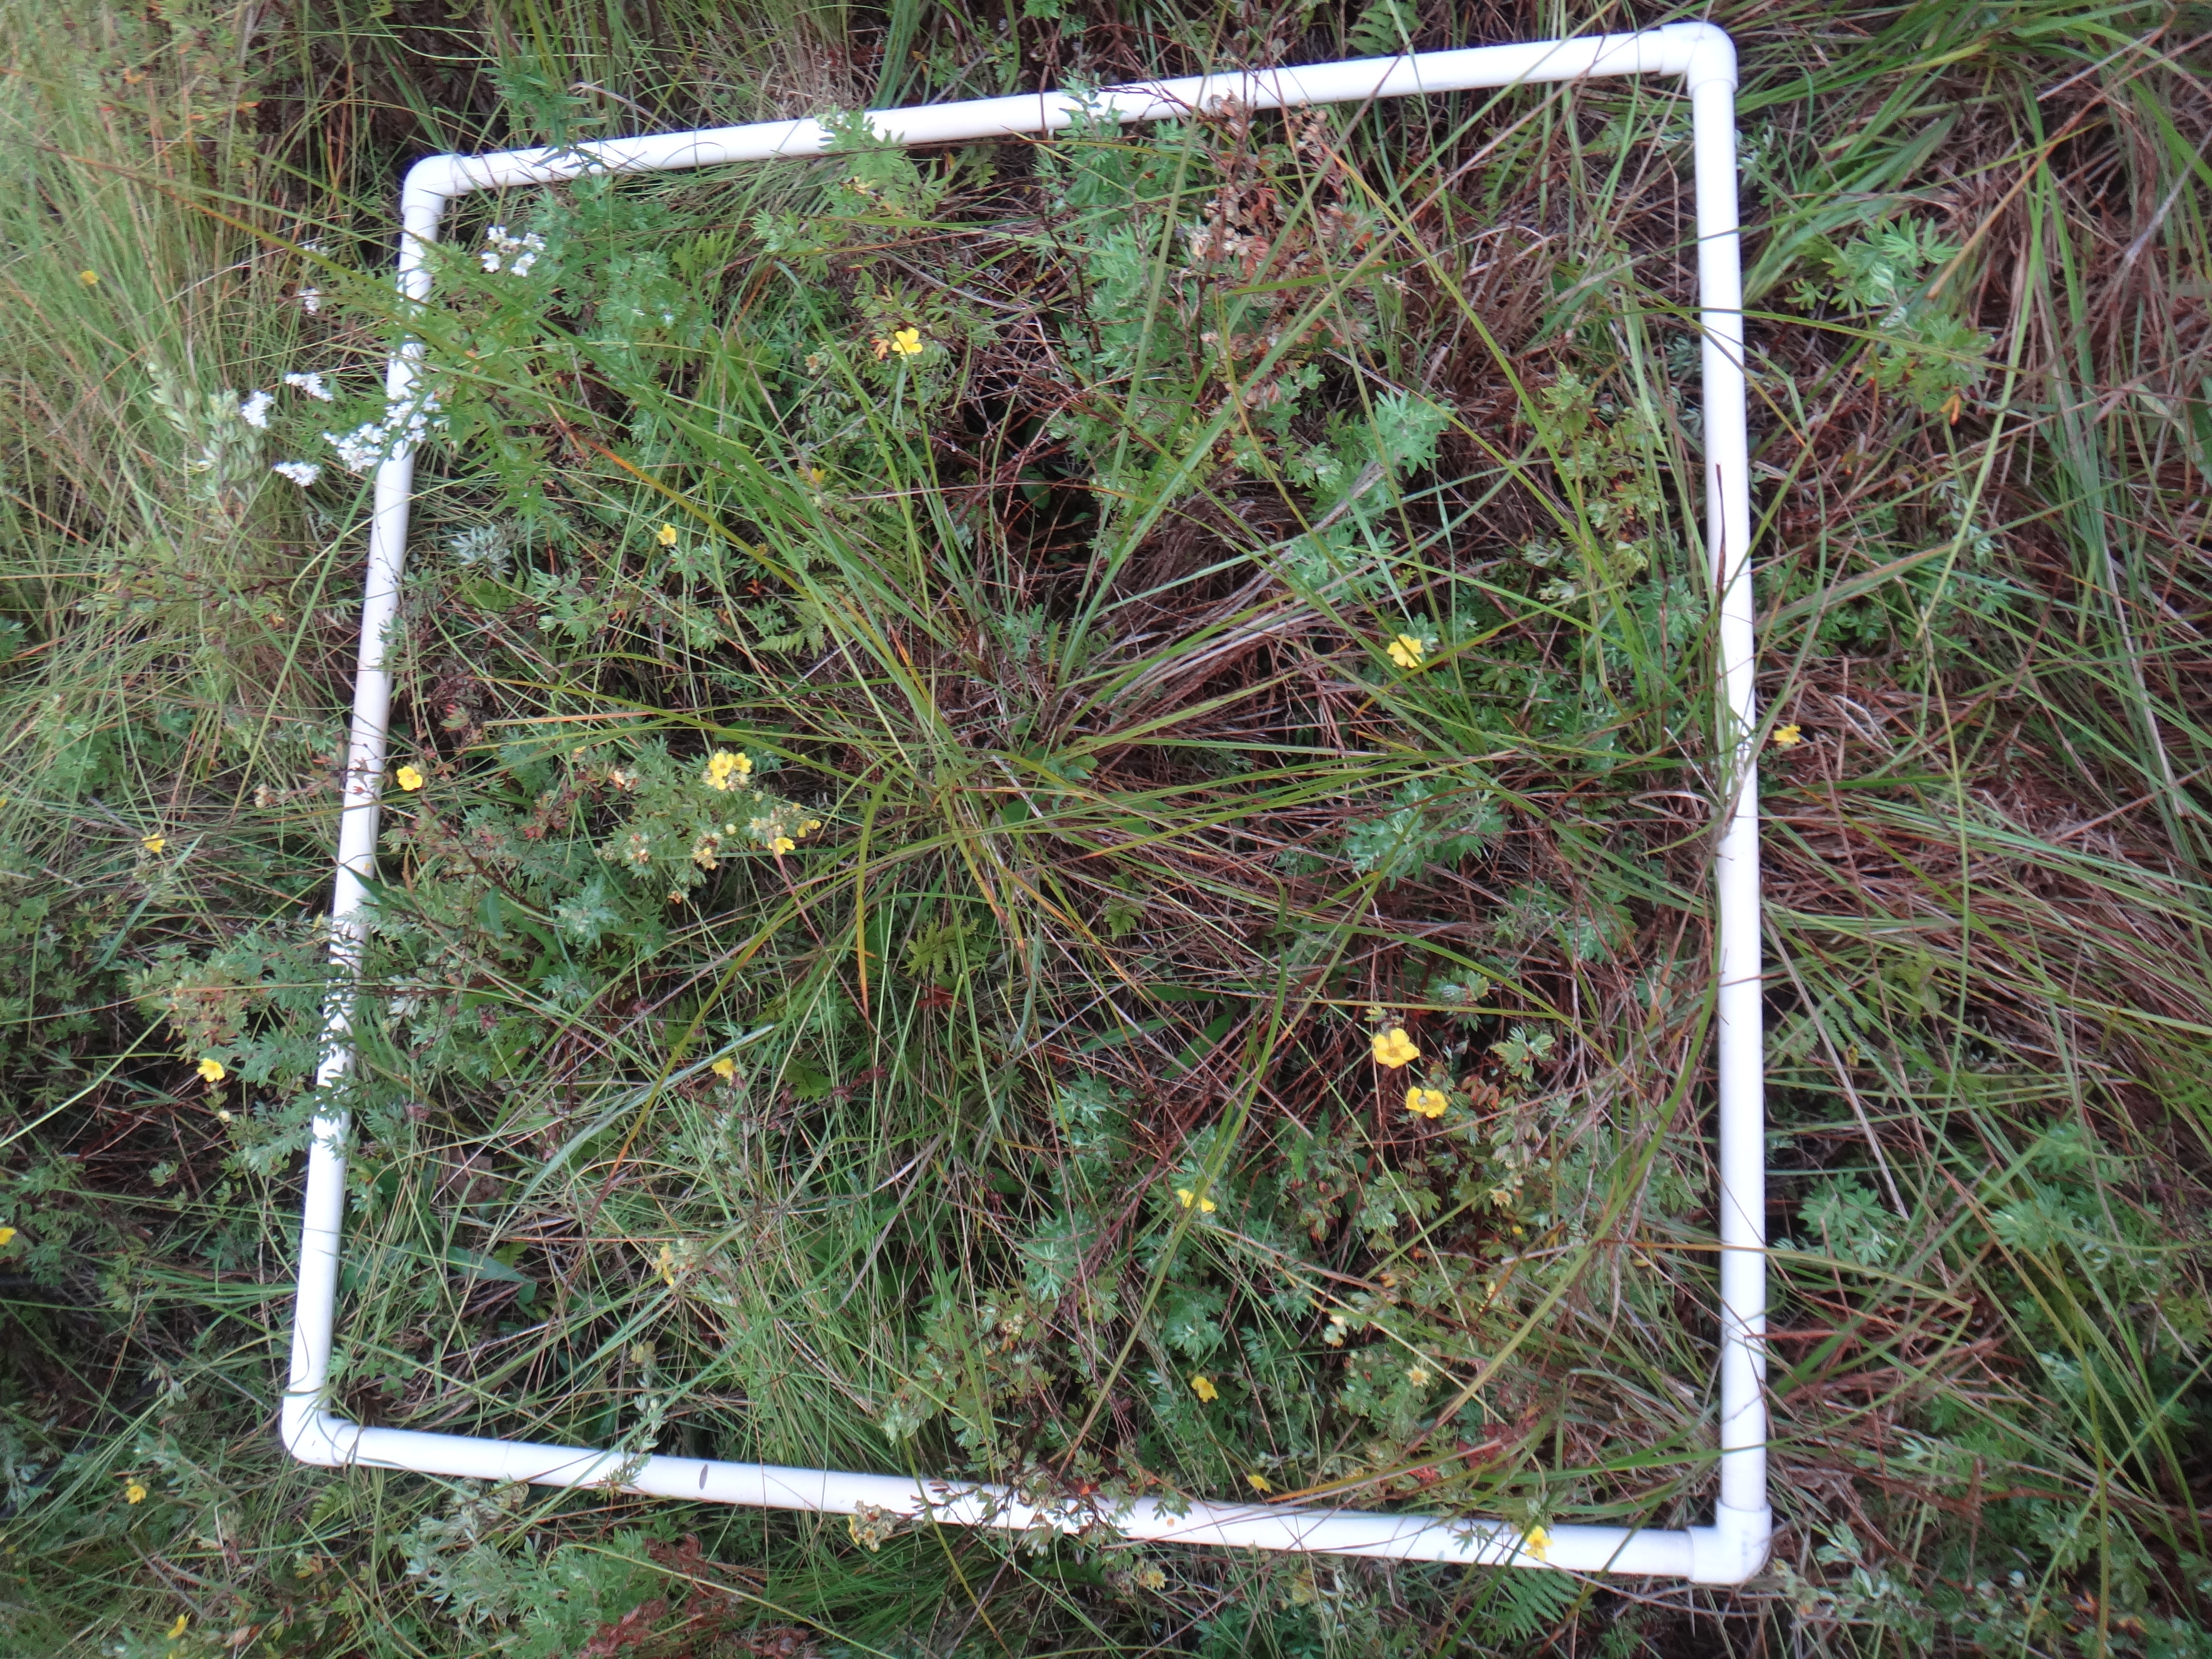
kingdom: Plantae
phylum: Tracheophyta
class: Magnoliopsida
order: Asterales
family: Asteraceae
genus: Solidago
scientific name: Solidago ohioensis
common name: Ohio goldenrod
